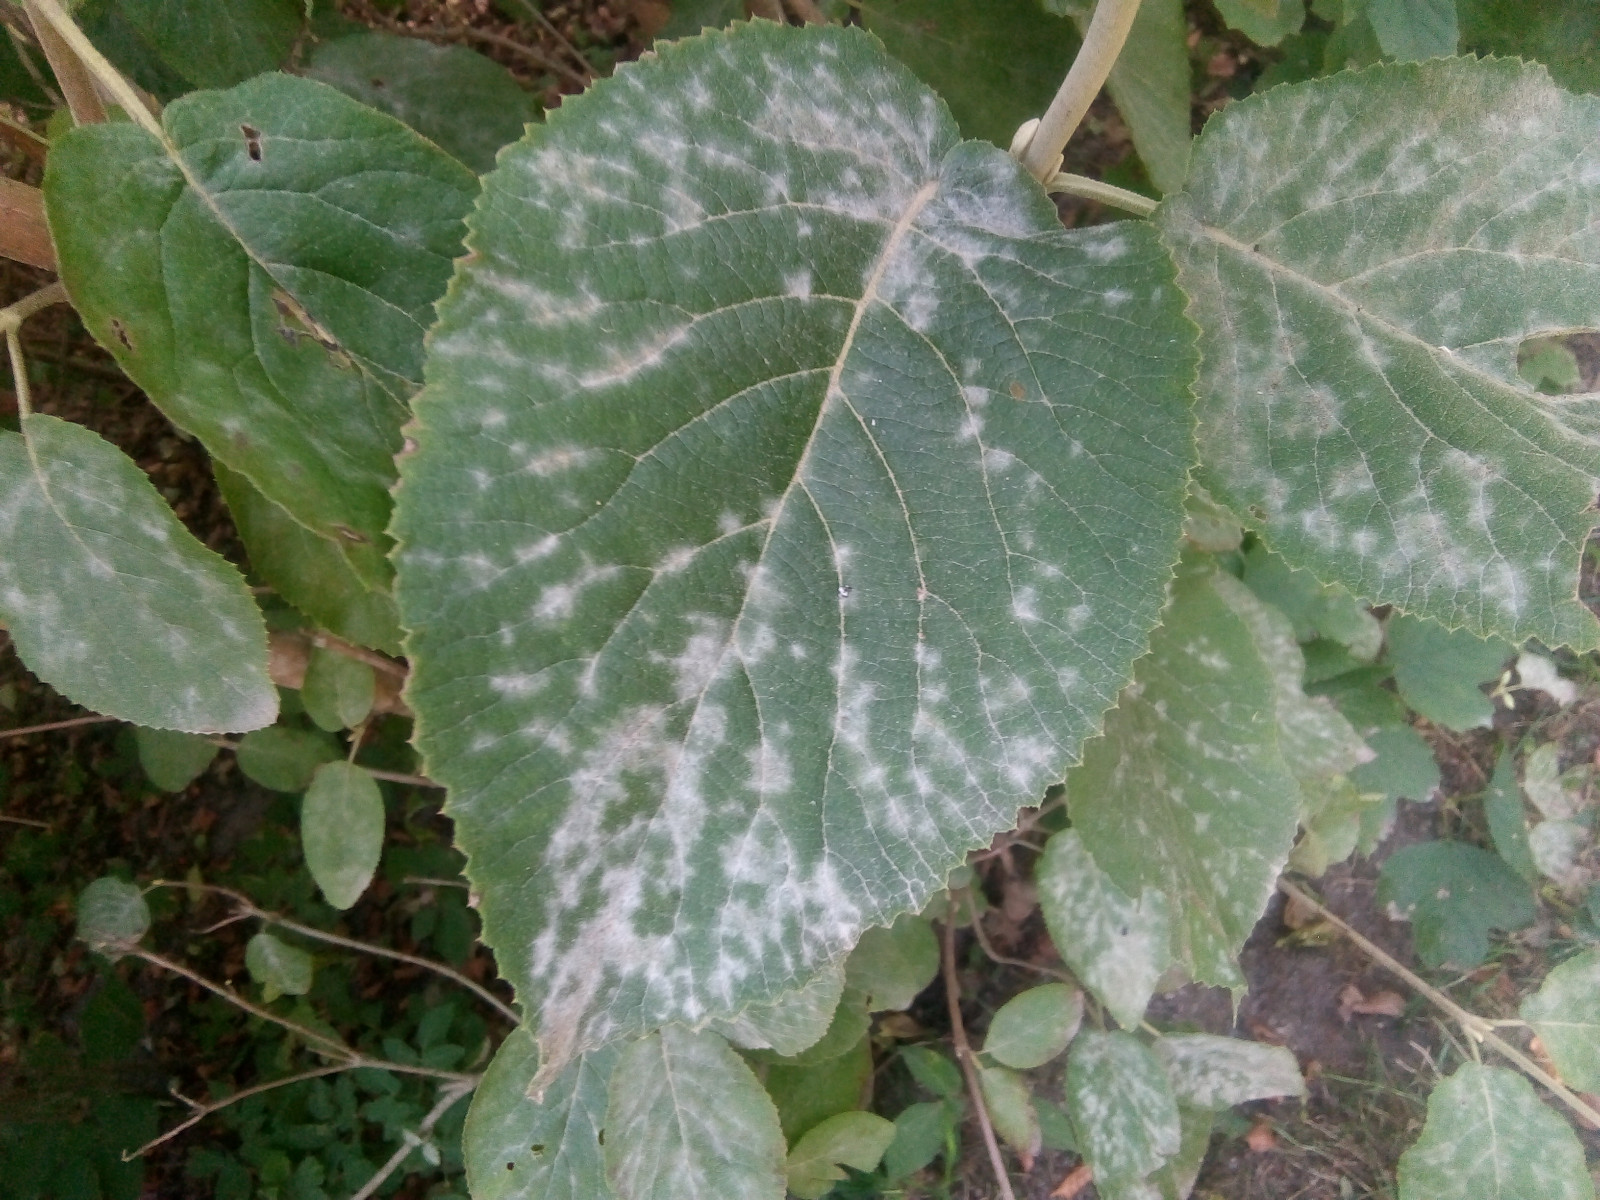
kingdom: Fungi
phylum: Ascomycota
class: Leotiomycetes
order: Helotiales
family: Erysiphaceae
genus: Erysiphe
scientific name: Erysiphe hedwigii
